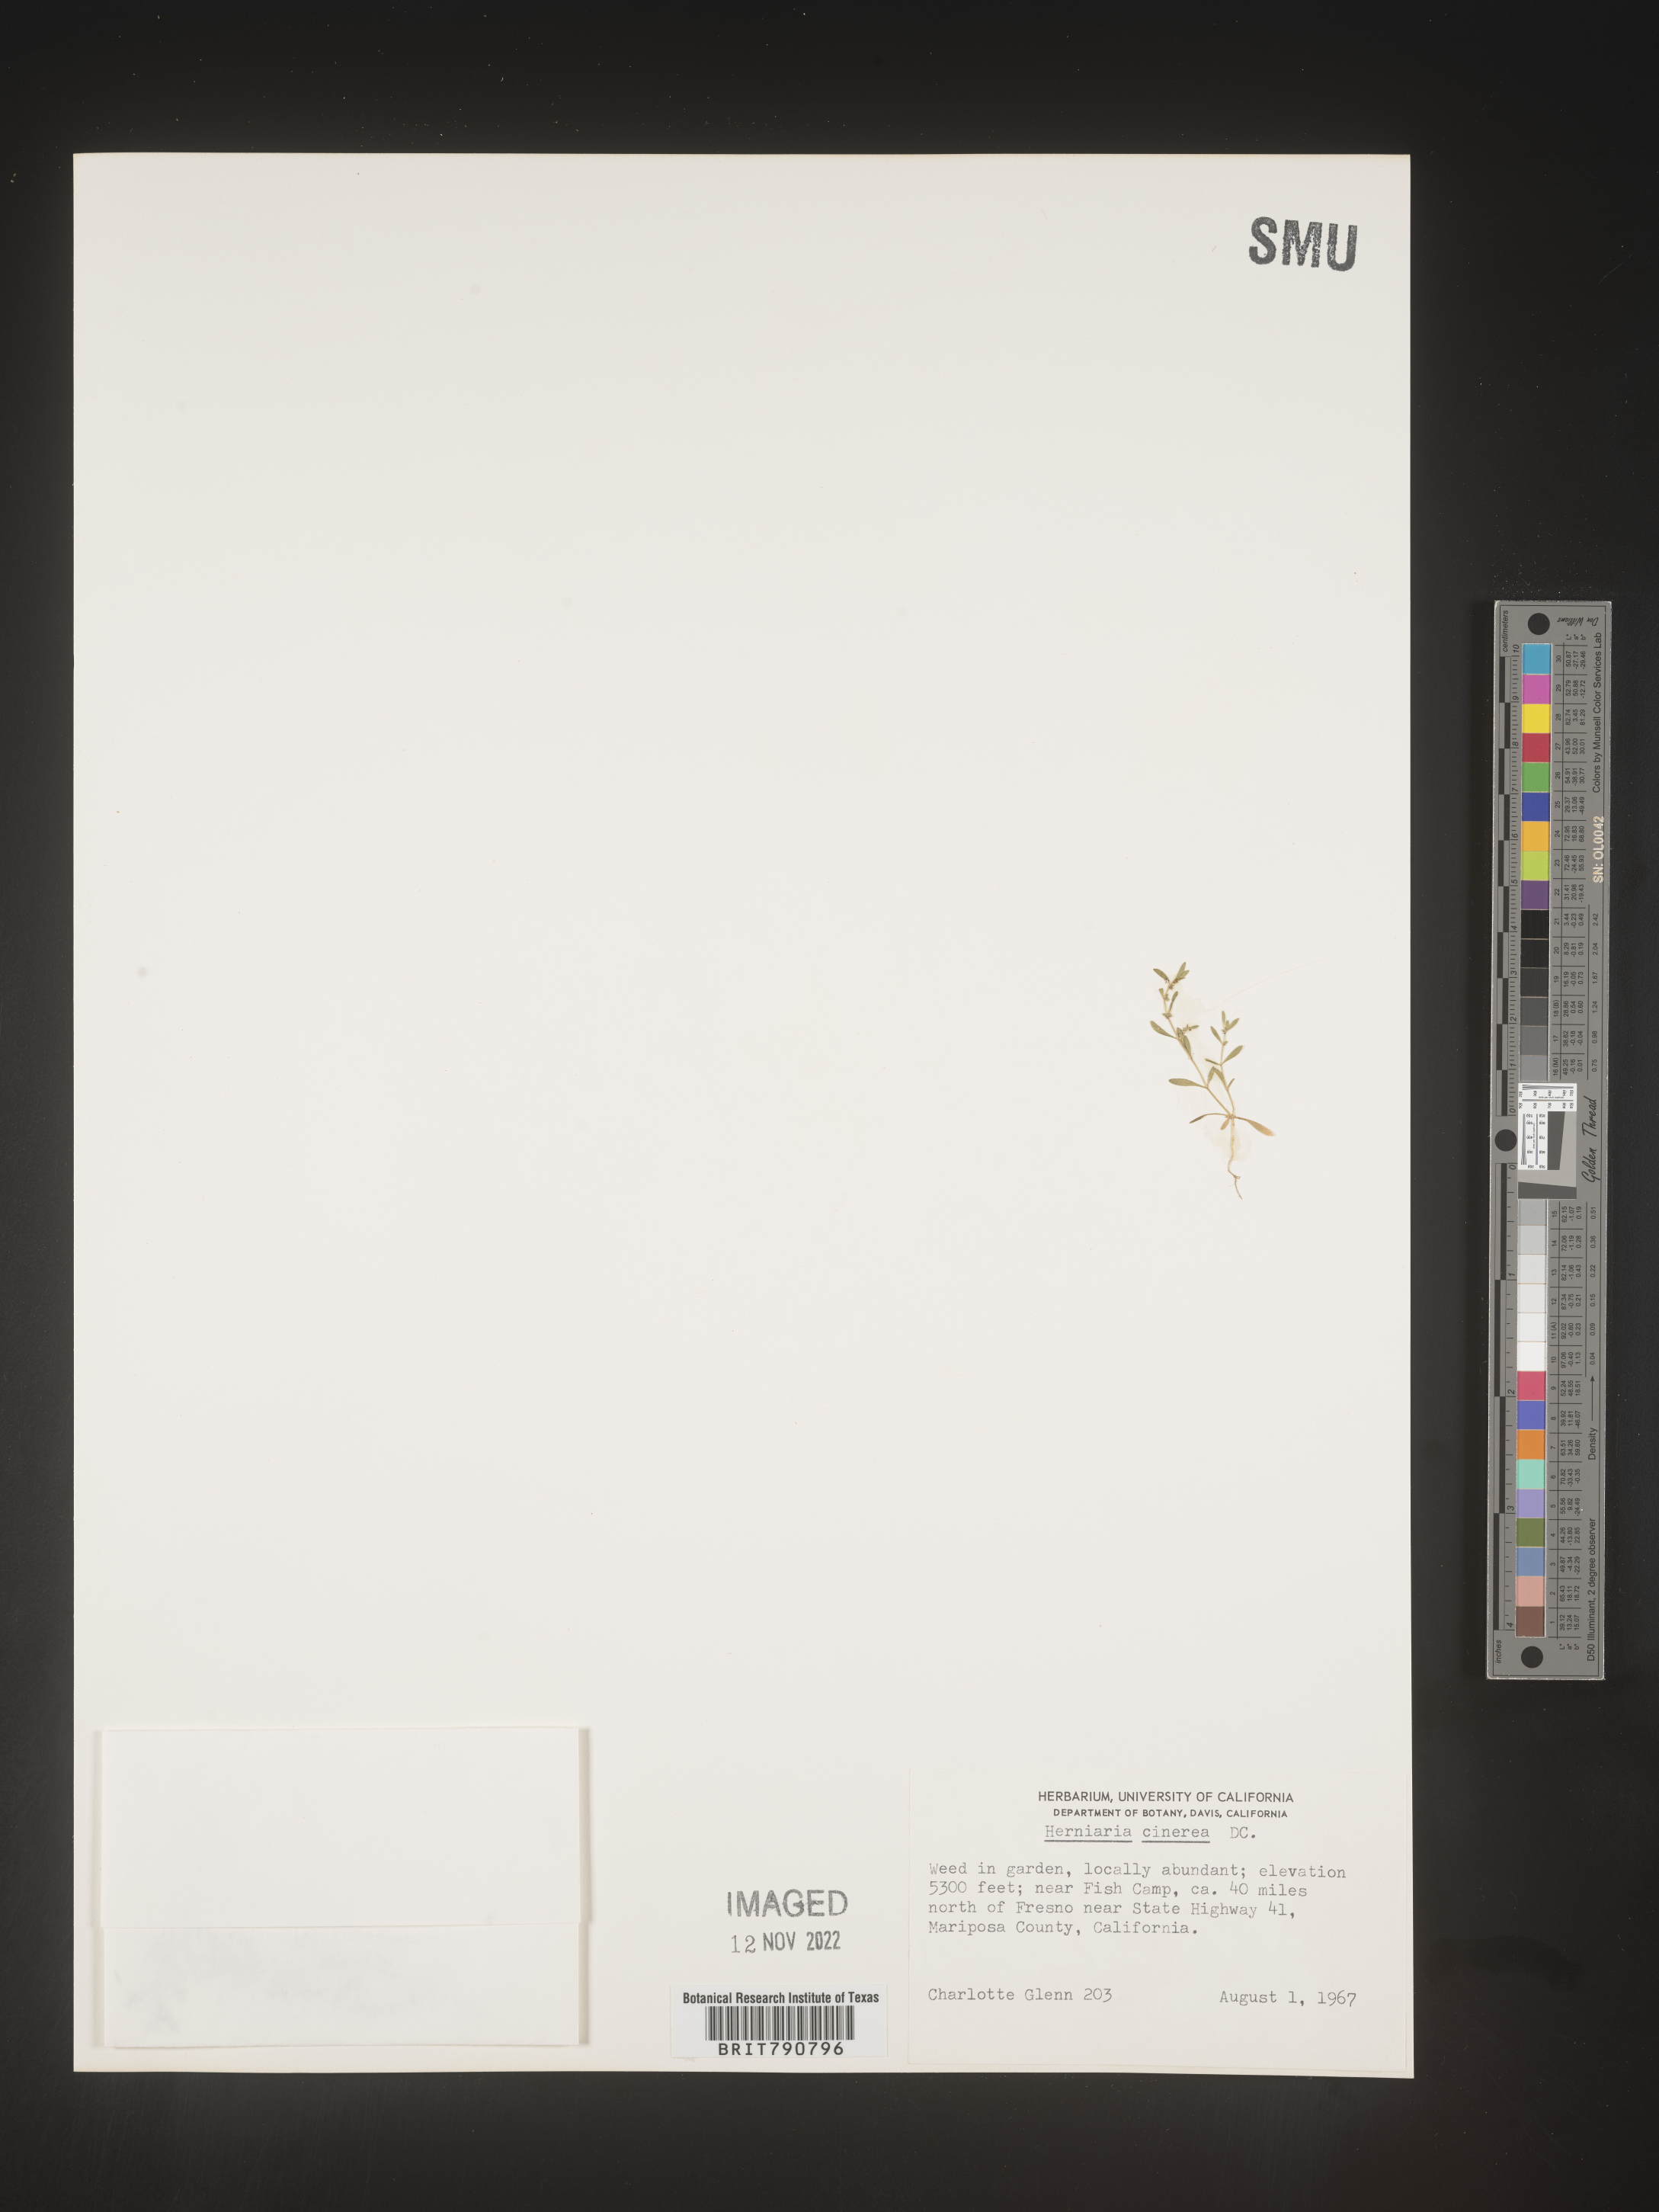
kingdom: Plantae
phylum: Tracheophyta
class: Magnoliopsida
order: Caryophyllales
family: Caryophyllaceae
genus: Herniaria
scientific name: Herniaria
